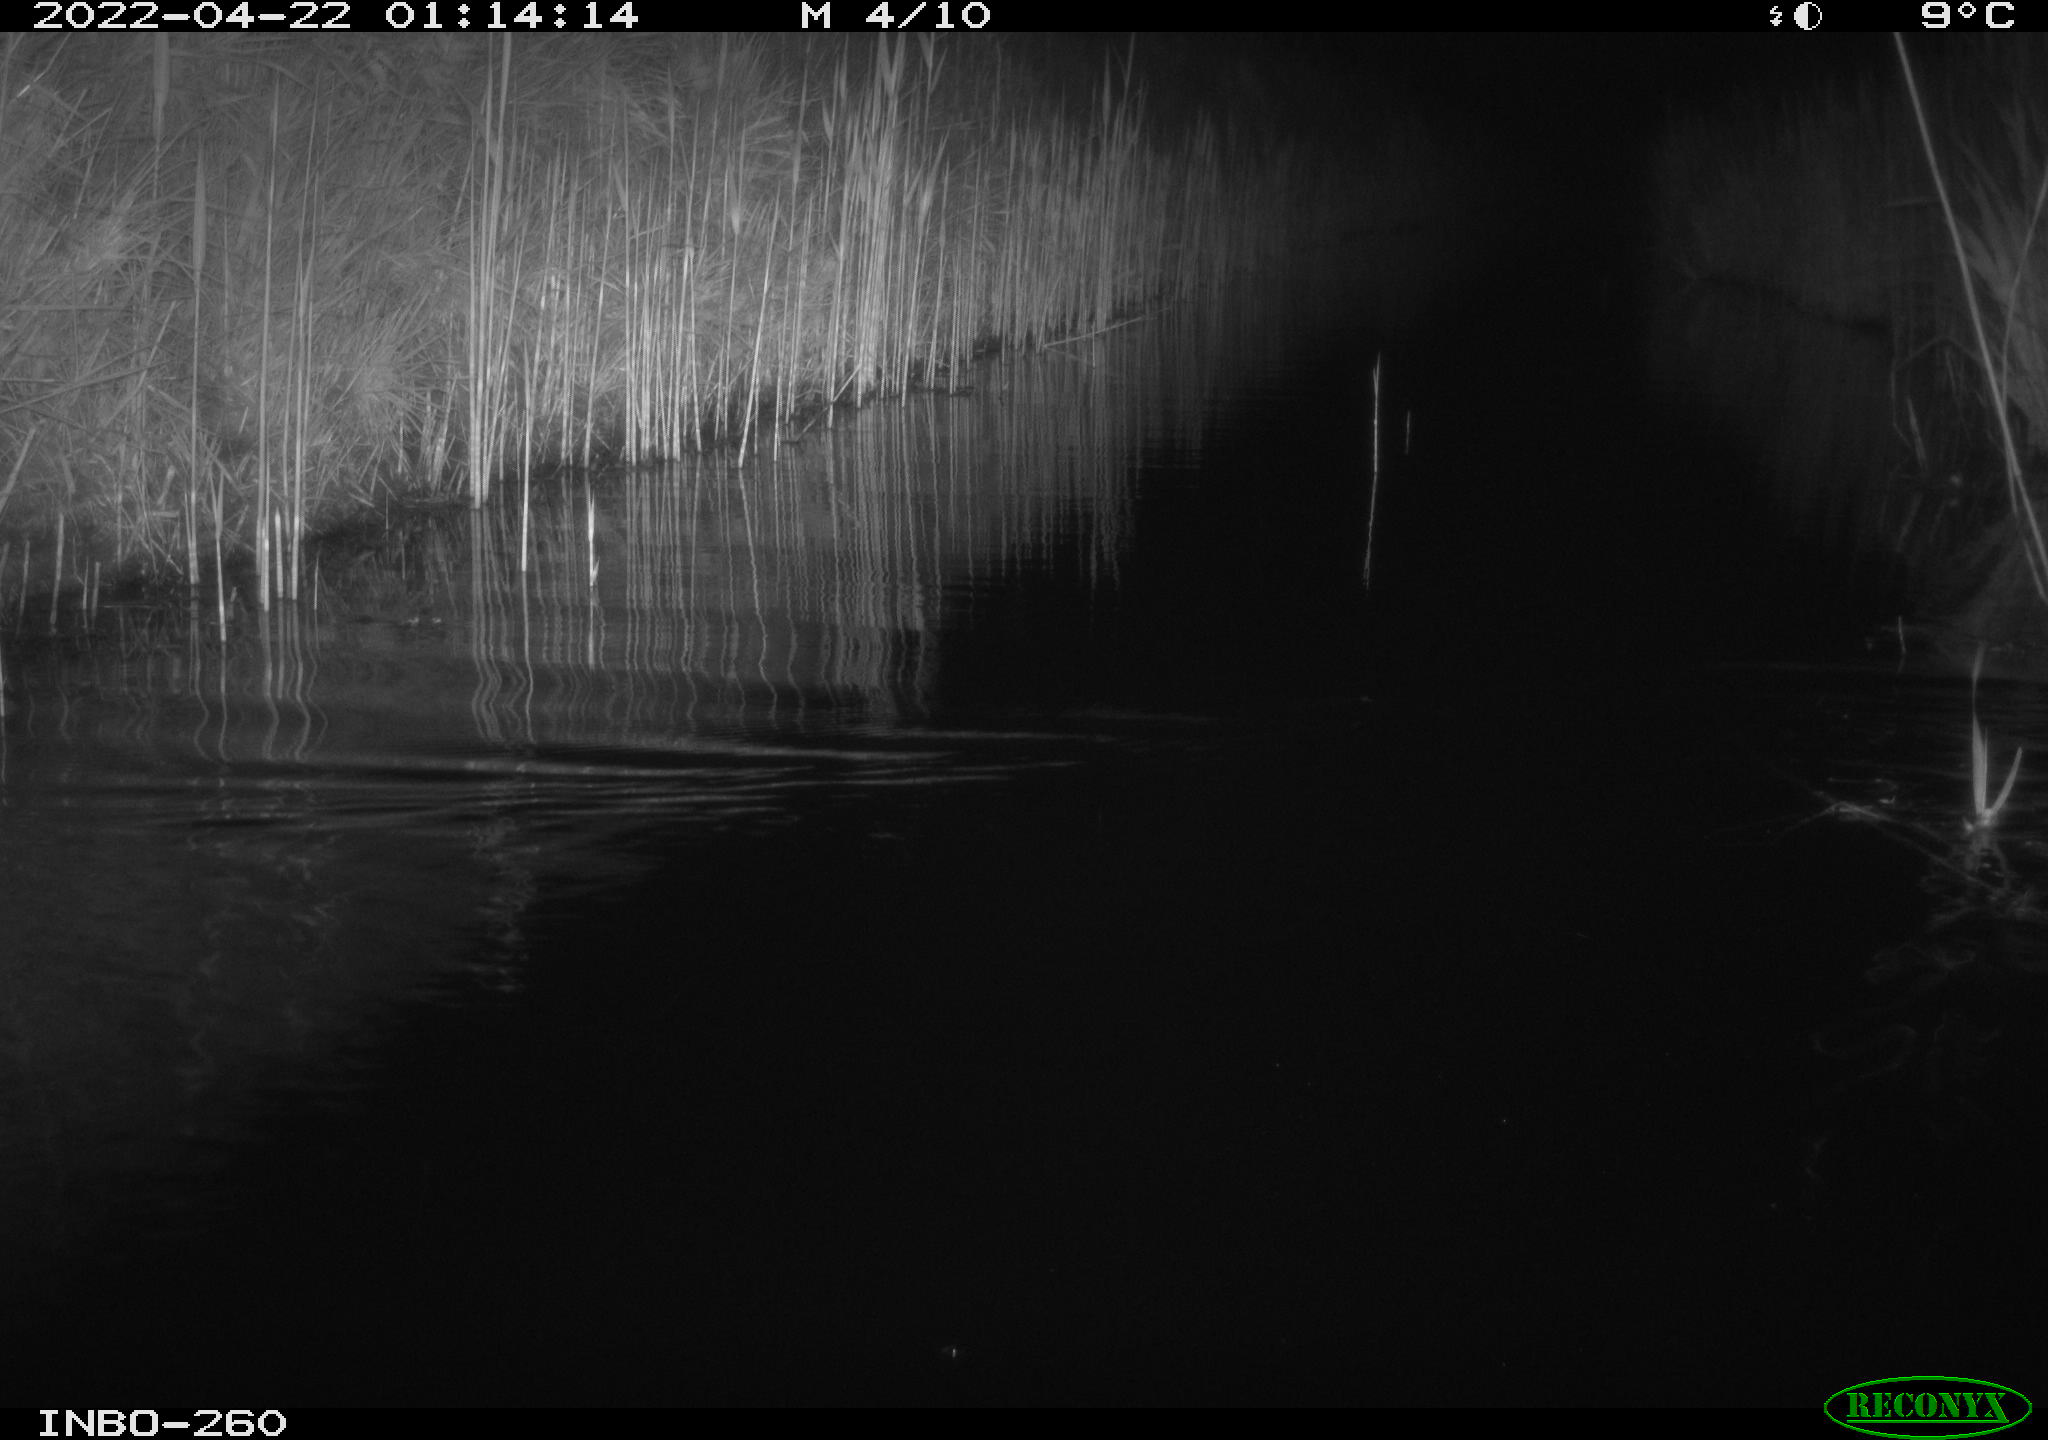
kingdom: Animalia
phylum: Chordata
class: Mammalia
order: Rodentia
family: Muridae
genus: Rattus
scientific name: Rattus norvegicus
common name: Brown rat
